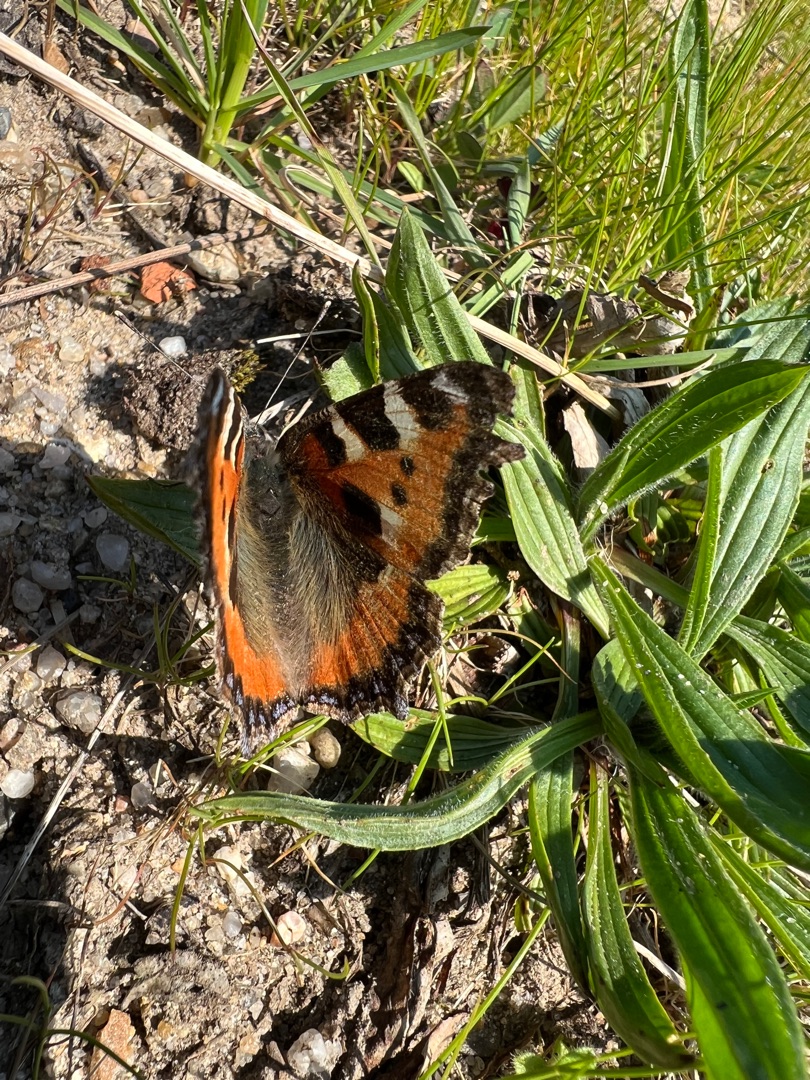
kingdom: Animalia
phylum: Arthropoda
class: Insecta
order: Lepidoptera
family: Nymphalidae
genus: Aglais
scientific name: Aglais urticae
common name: Nældens takvinge
